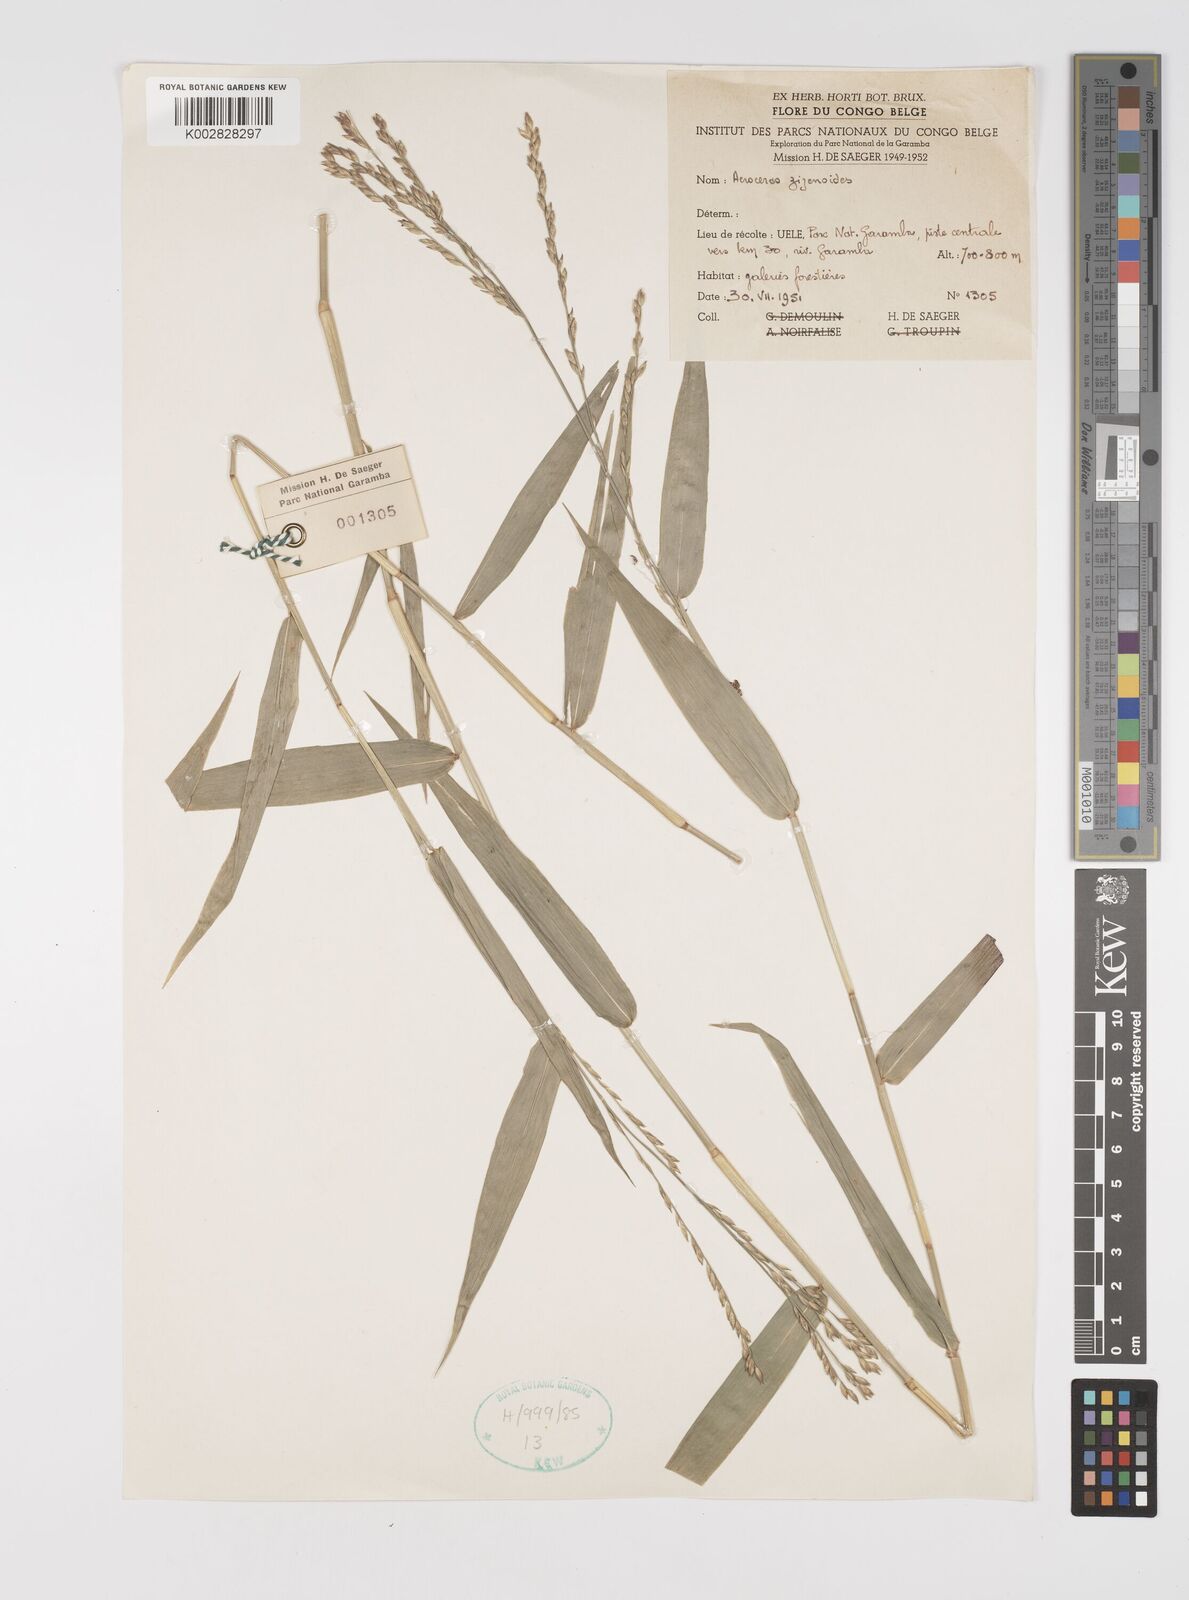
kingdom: Plantae
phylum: Tracheophyta
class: Liliopsida
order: Poales
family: Poaceae
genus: Acroceras
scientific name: Acroceras zizanioides
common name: Oat grass
